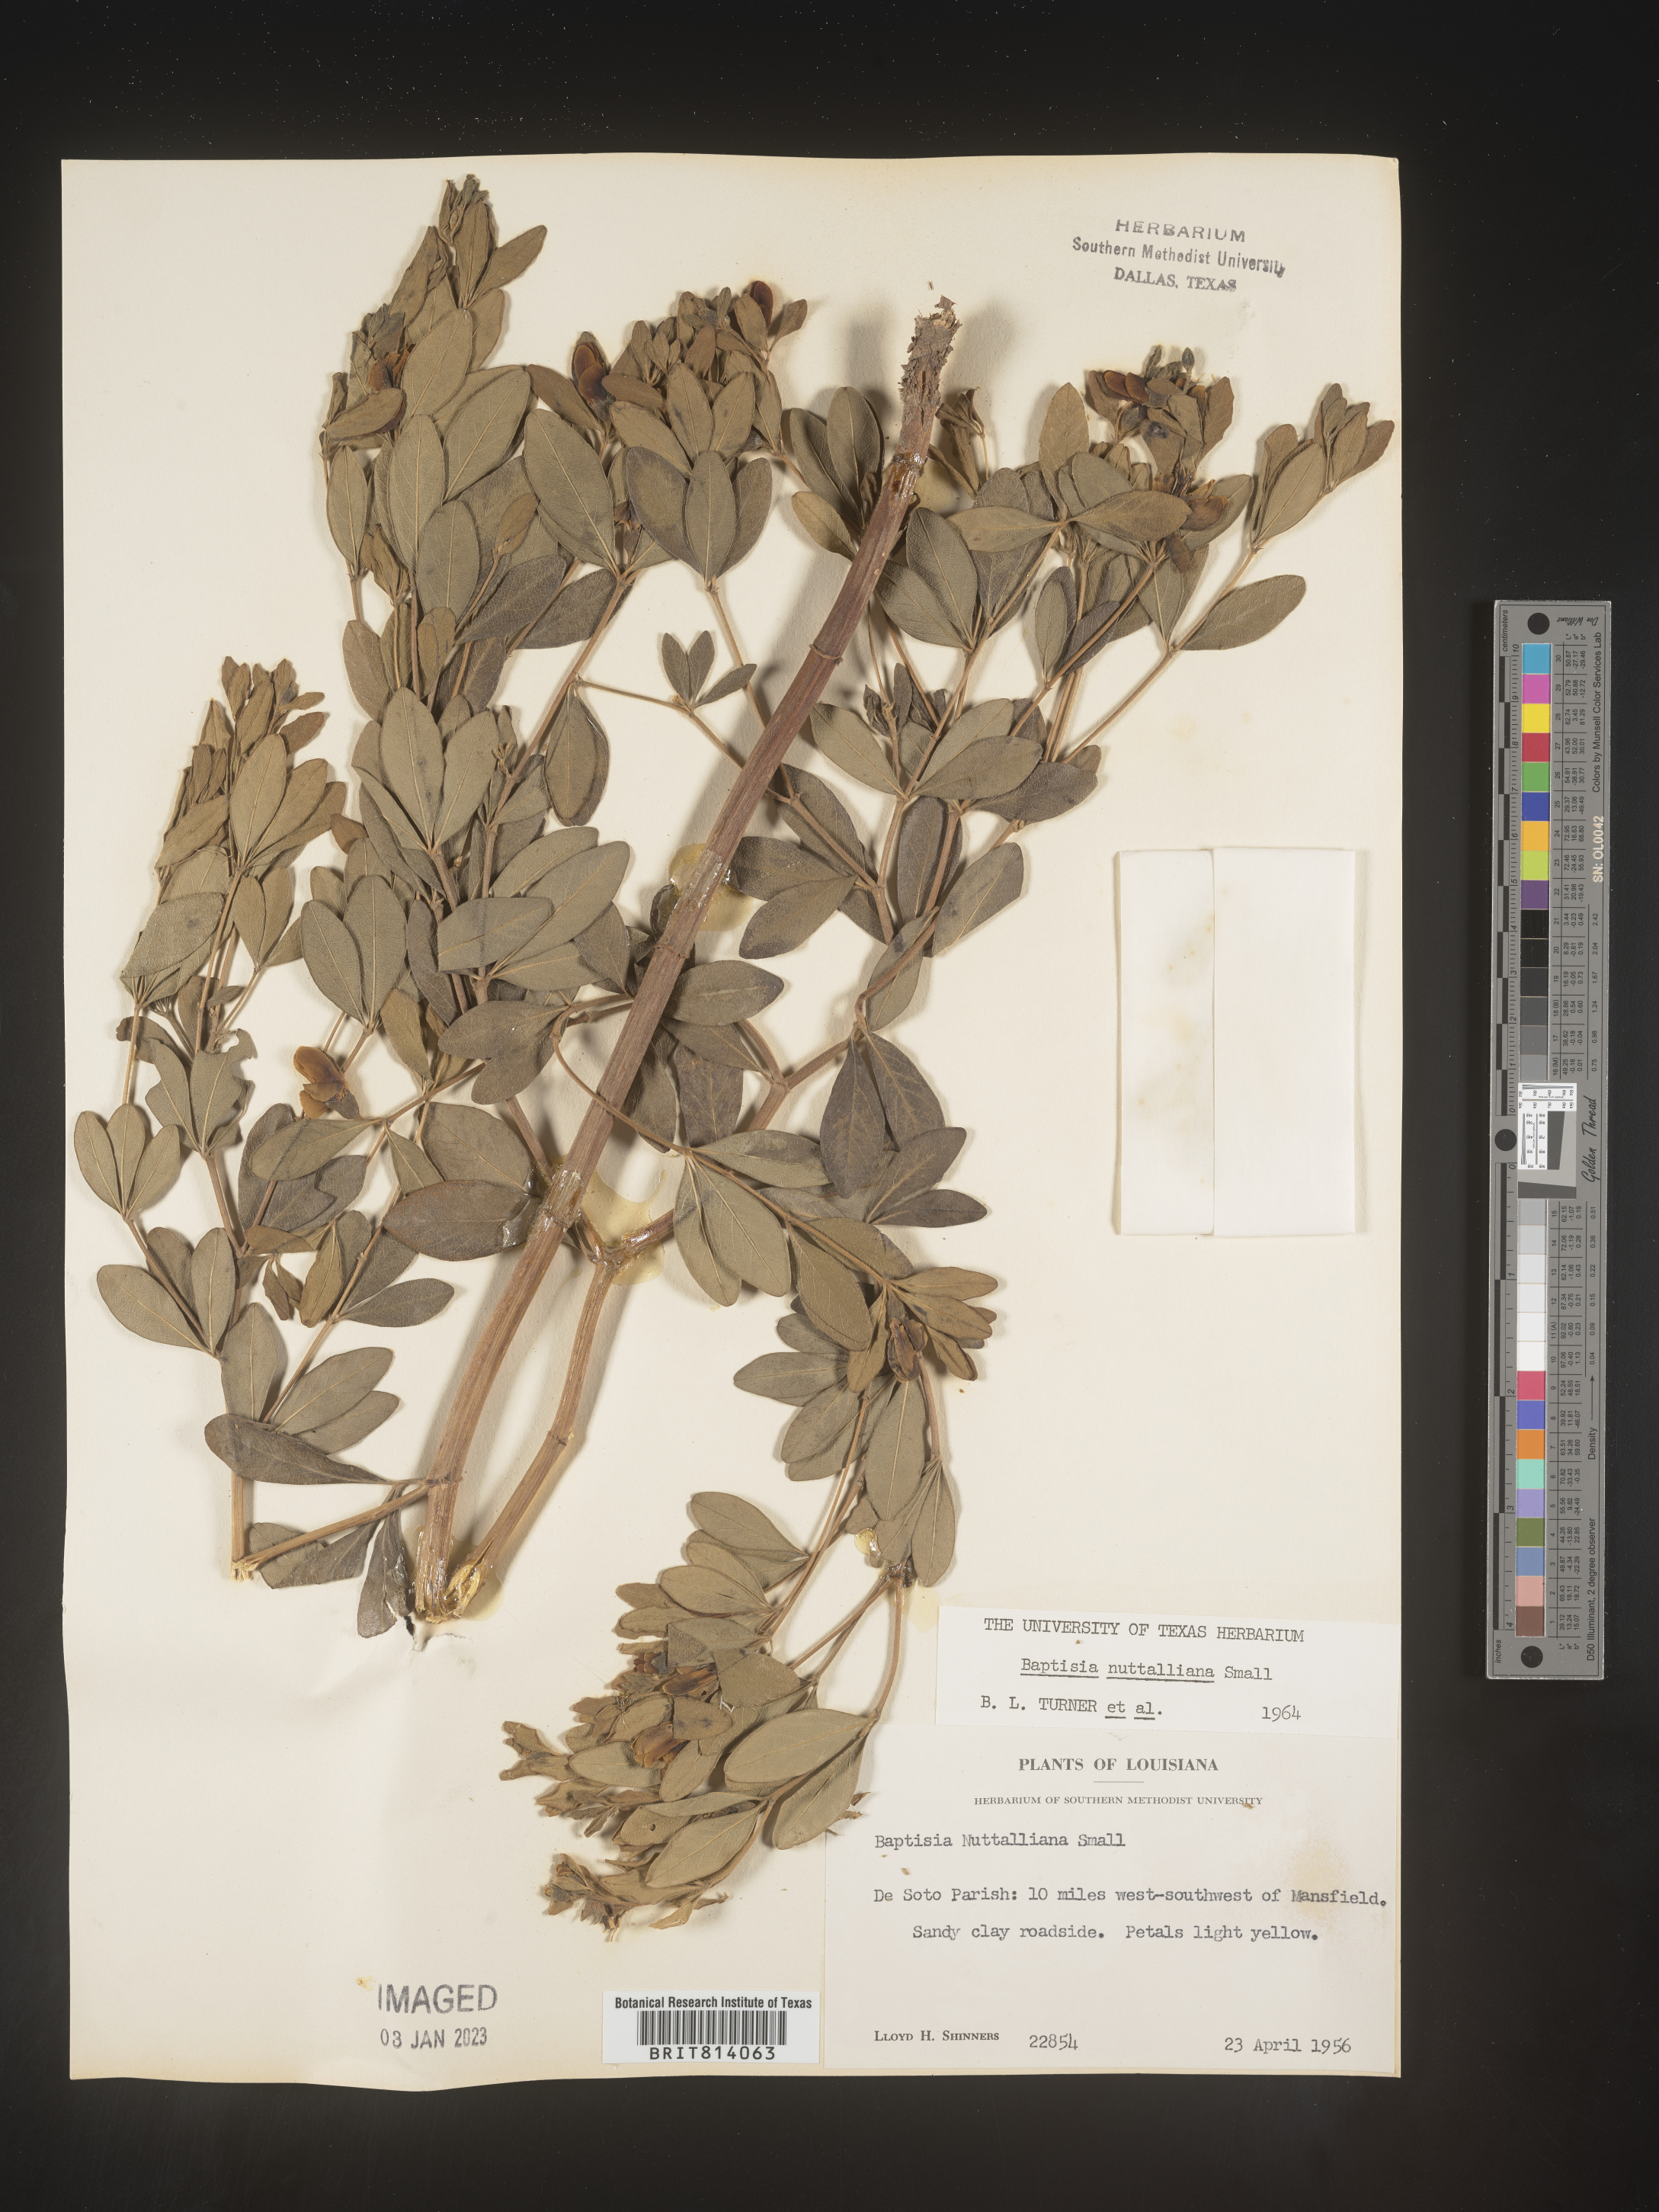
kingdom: Plantae
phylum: Tracheophyta
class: Magnoliopsida
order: Fabales
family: Fabaceae
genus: Baptisia
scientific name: Baptisia nuttalliana
